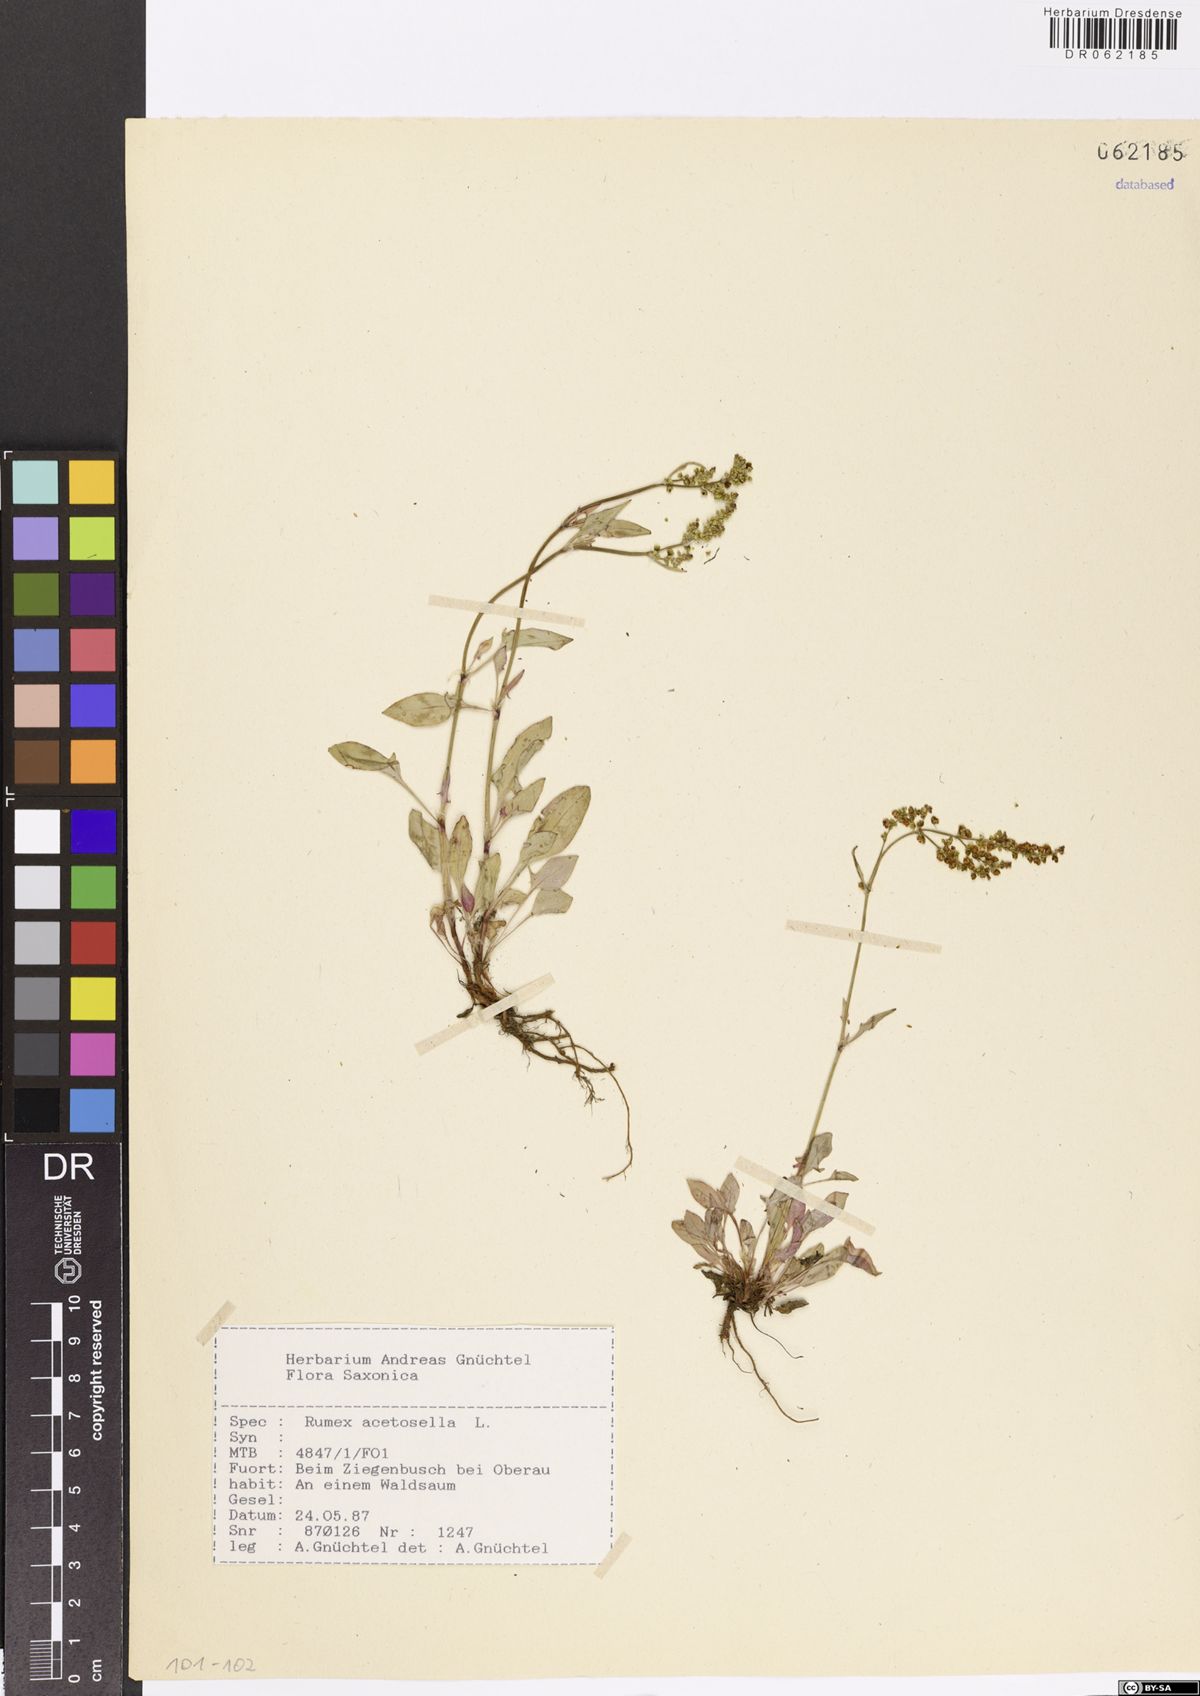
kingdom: Plantae
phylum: Tracheophyta
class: Magnoliopsida
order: Caryophyllales
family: Polygonaceae
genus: Rumex
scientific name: Rumex acetosella
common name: Common sheep sorrel
